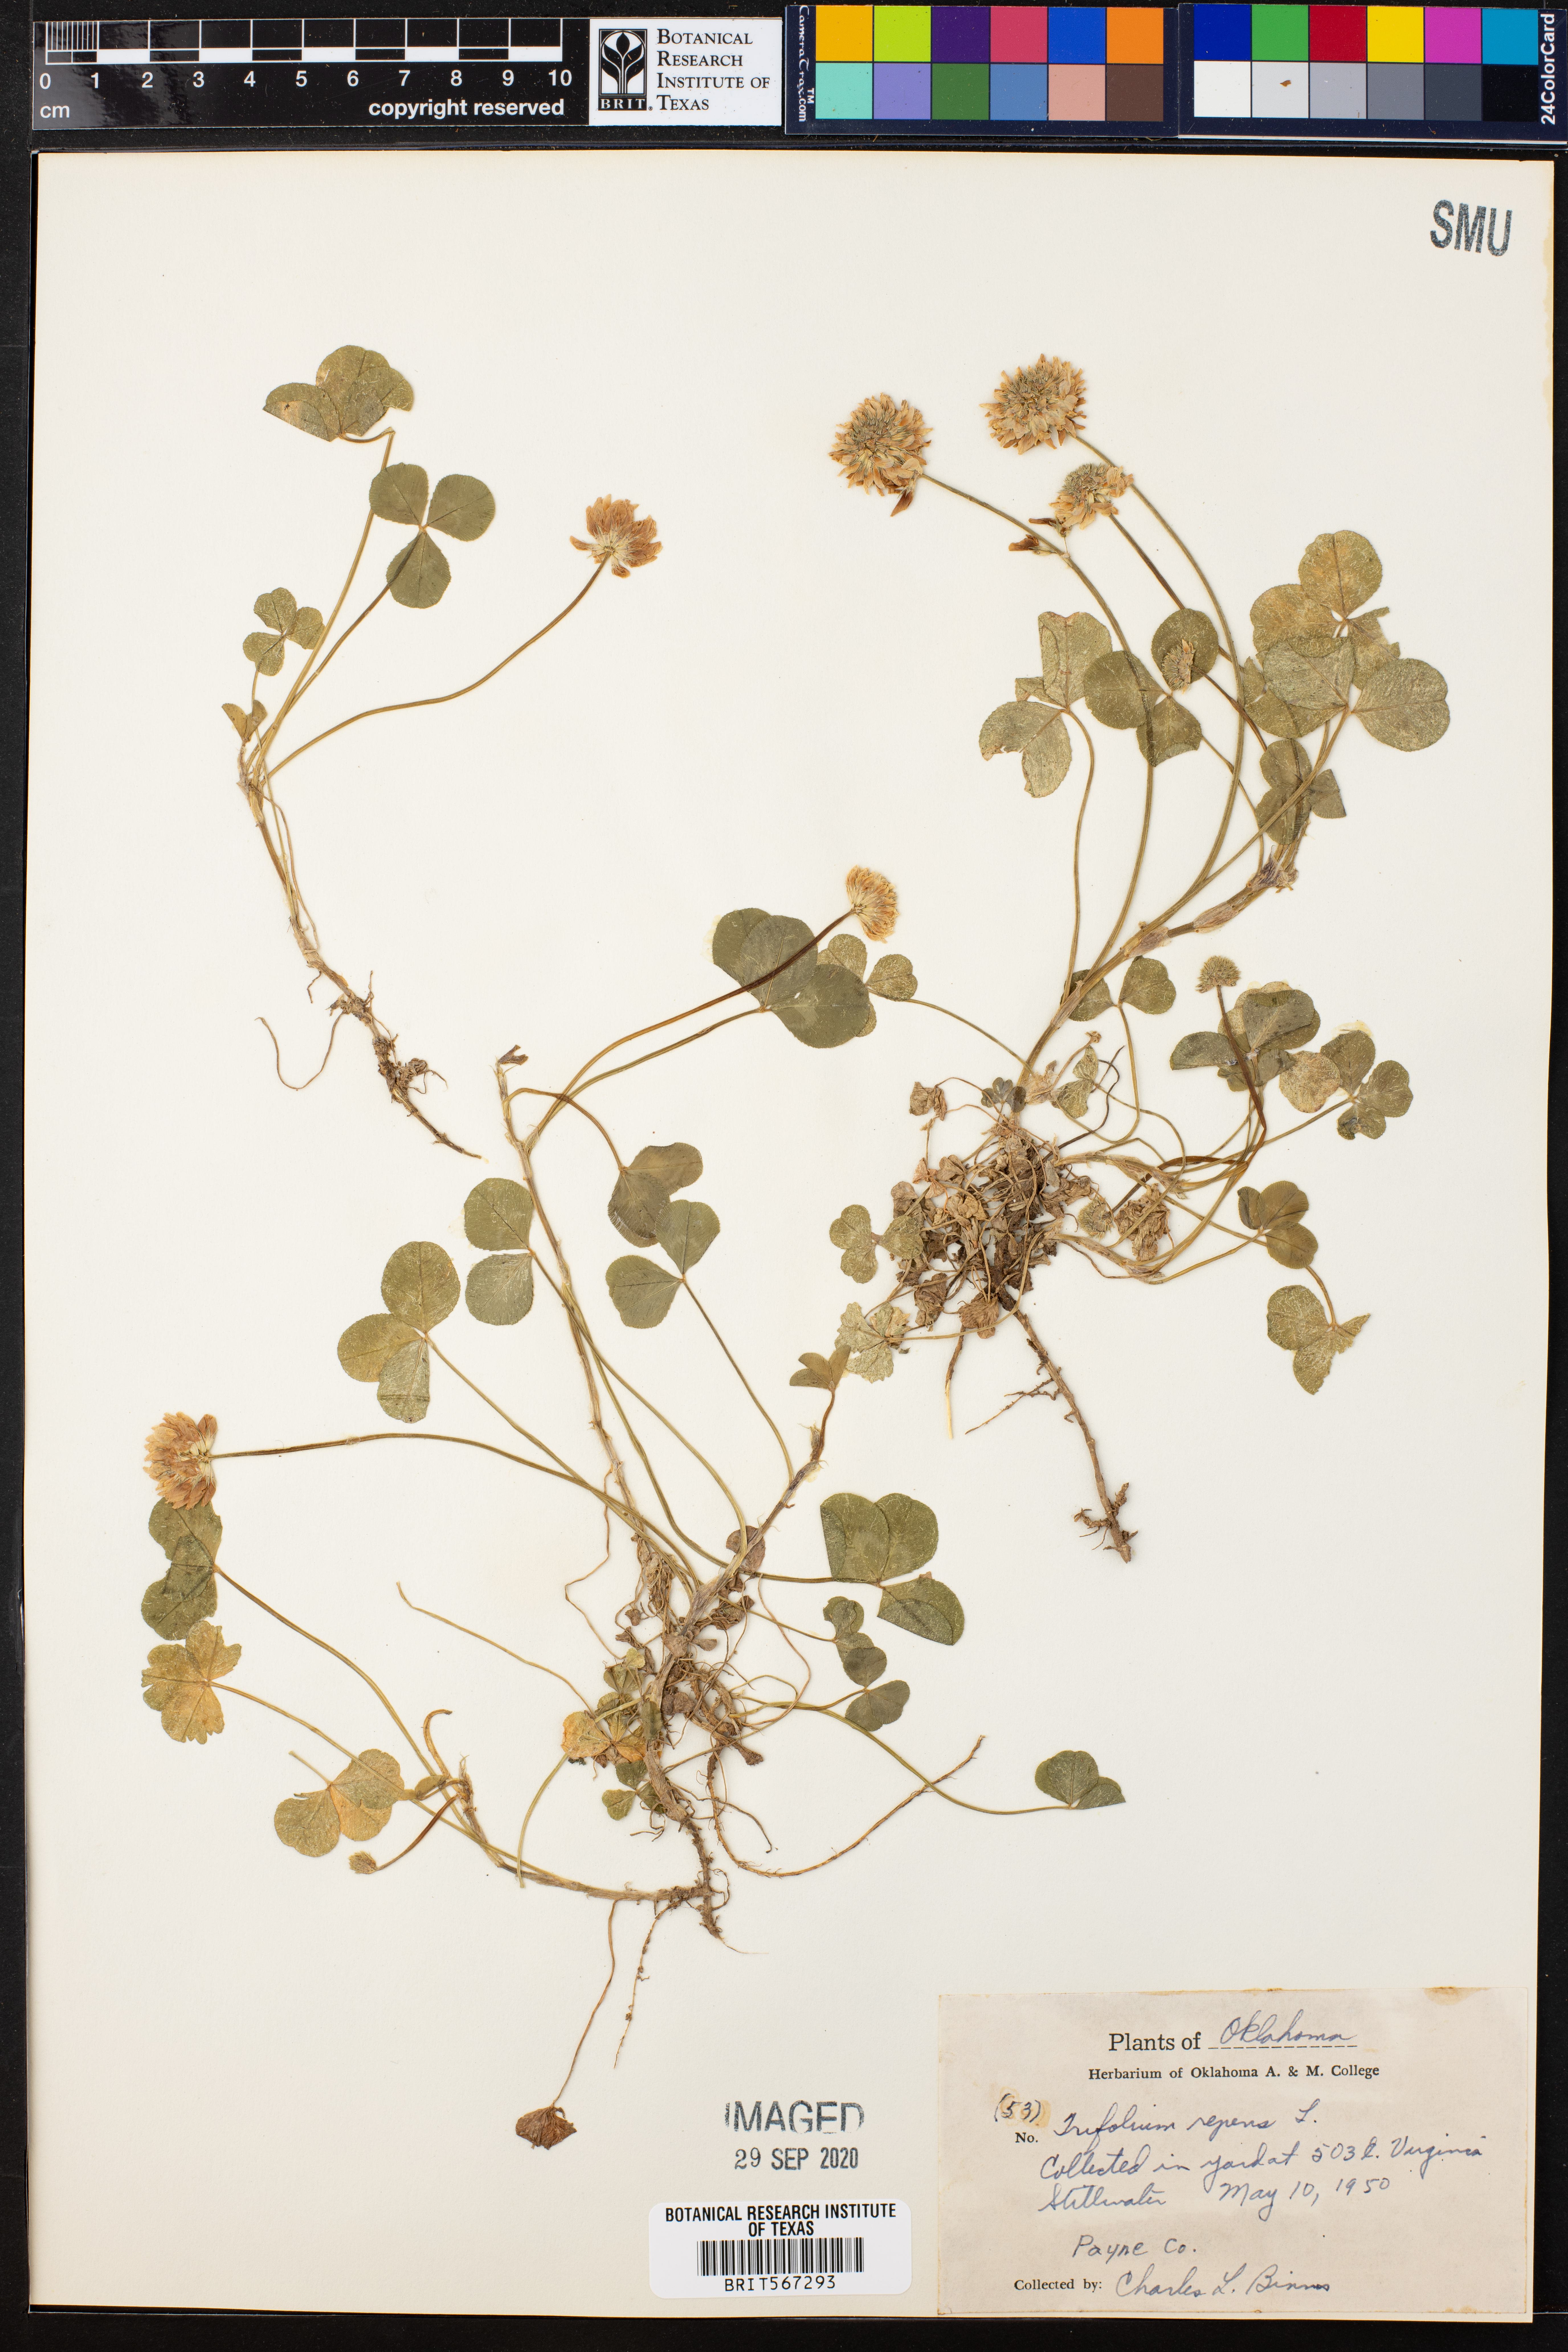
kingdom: Plantae
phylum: Tracheophyta
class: Magnoliopsida
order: Fabales
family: Fabaceae
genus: Trifolium
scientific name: Trifolium repens
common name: White clover
